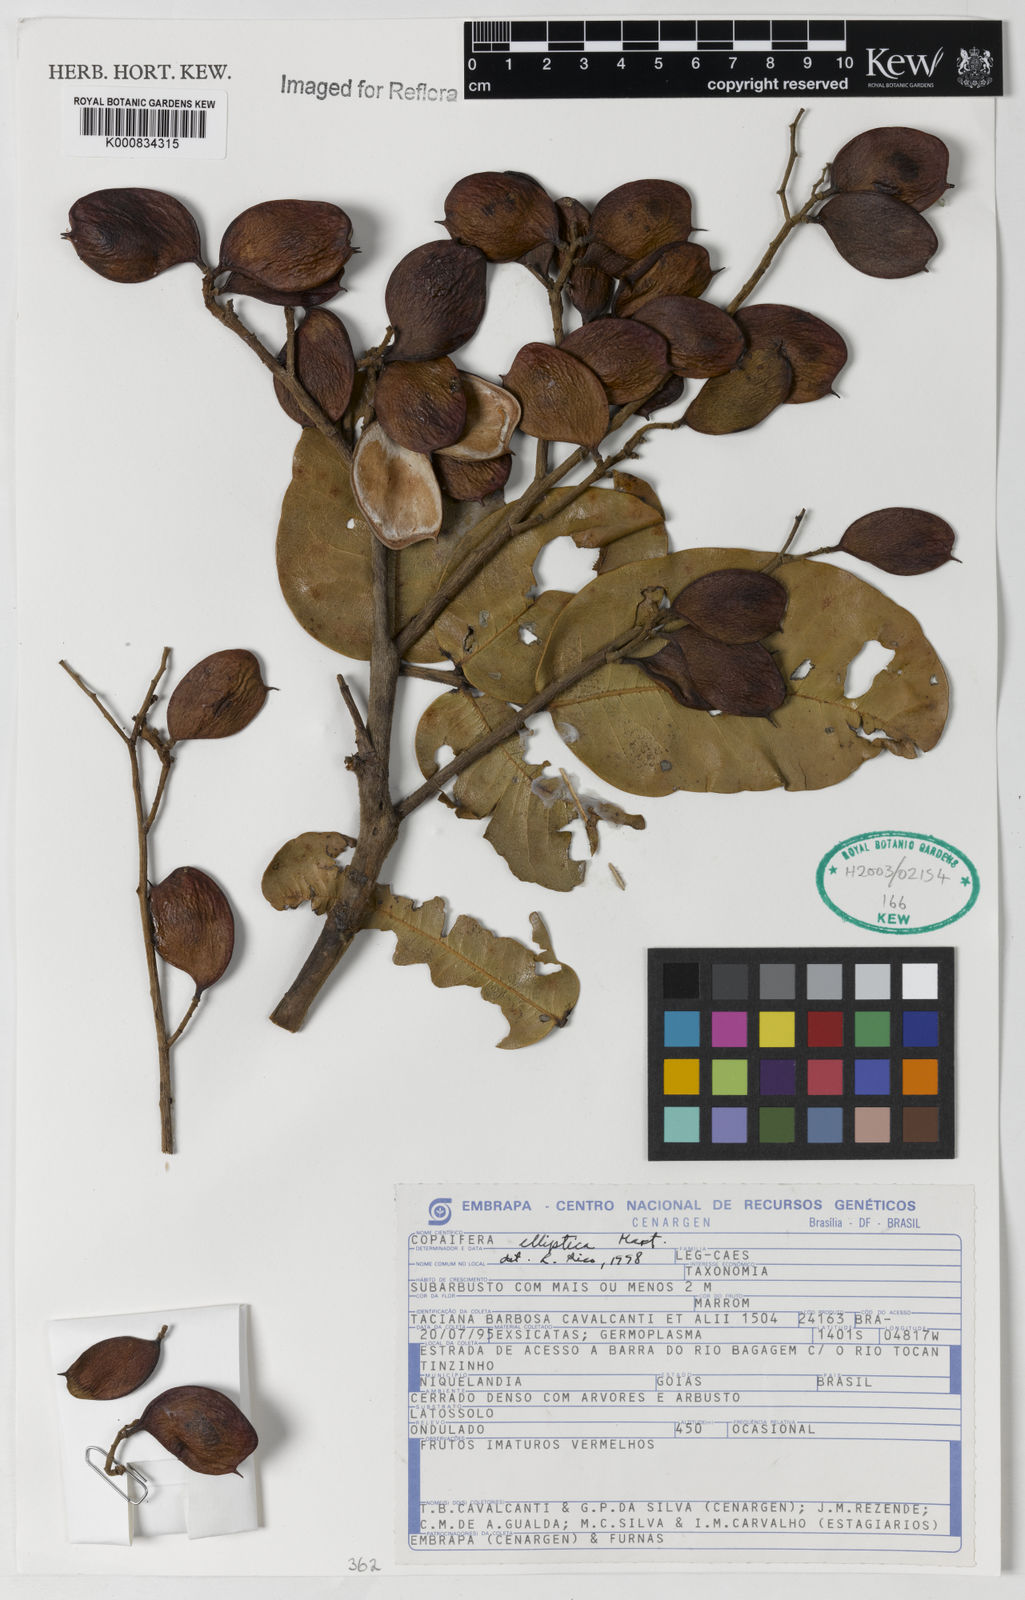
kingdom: Plantae
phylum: Tracheophyta
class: Magnoliopsida
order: Fabales
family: Fabaceae
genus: Copaifera
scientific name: Copaifera elliptica
